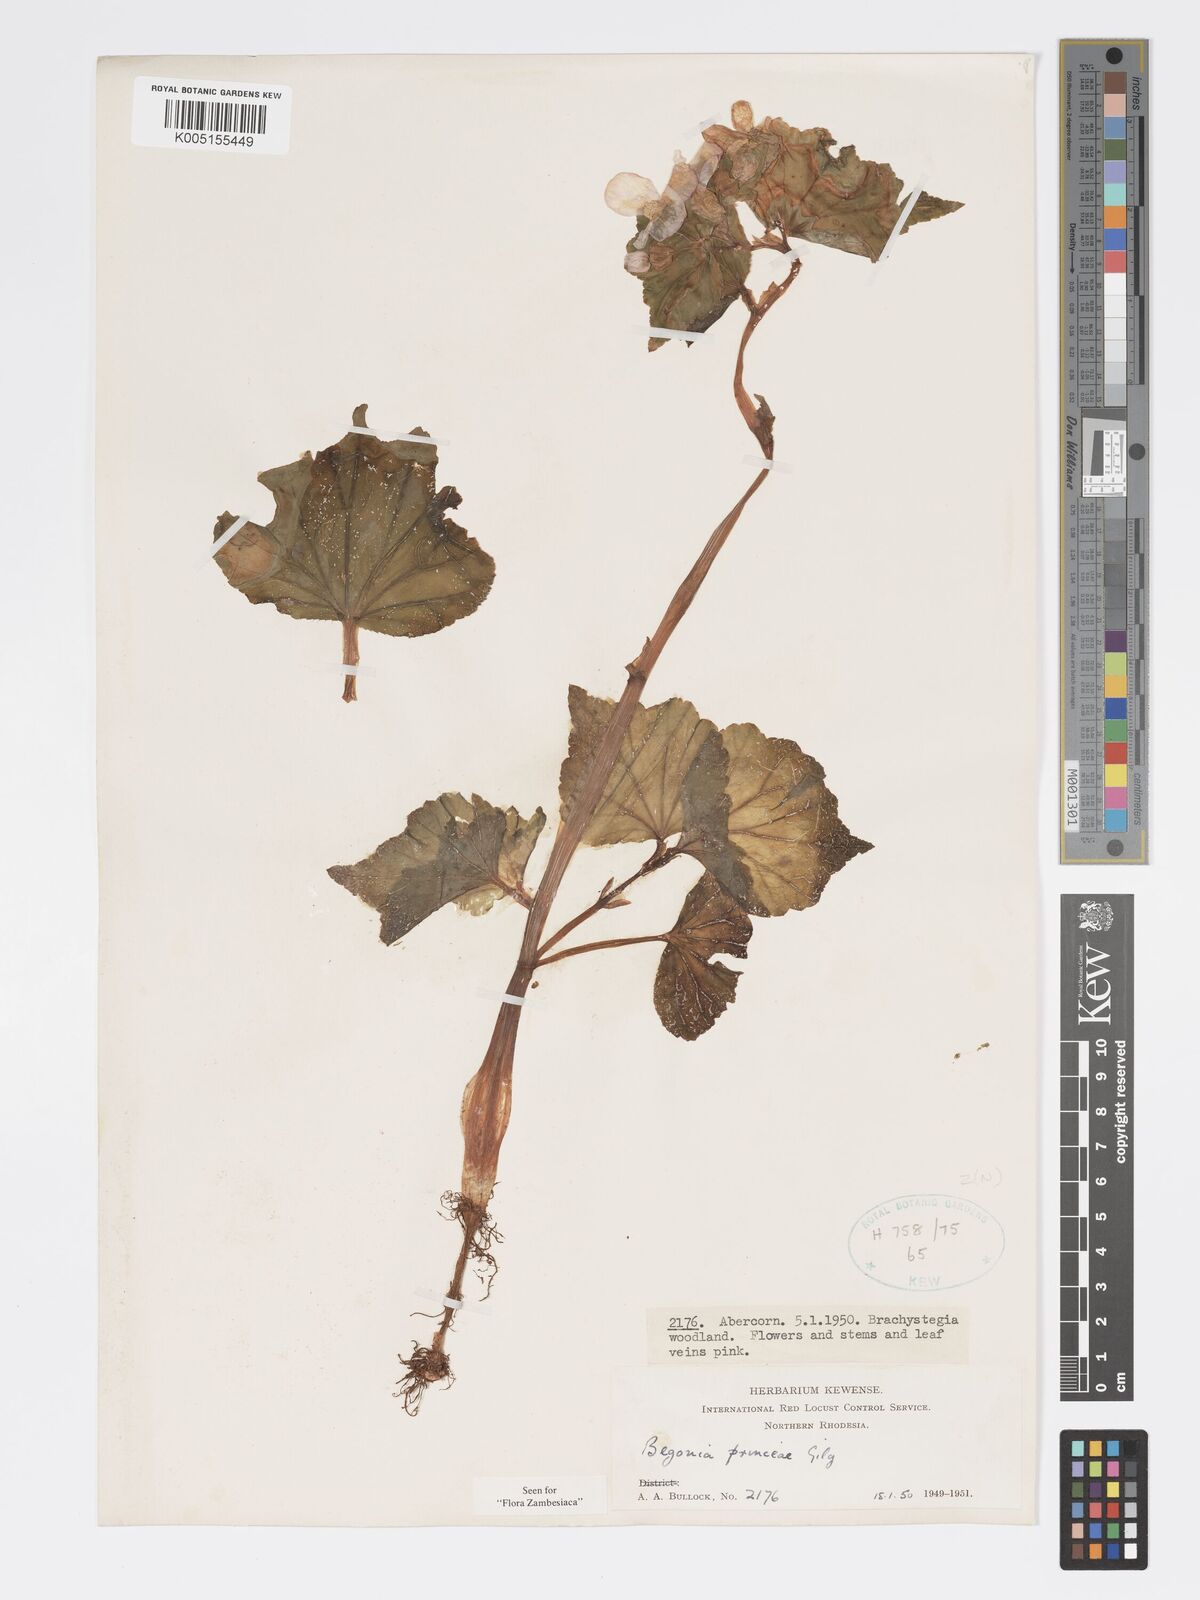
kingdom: Plantae
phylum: Tracheophyta
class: Magnoliopsida
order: Cucurbitales
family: Begoniaceae
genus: Begonia
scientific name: Begonia princeae
